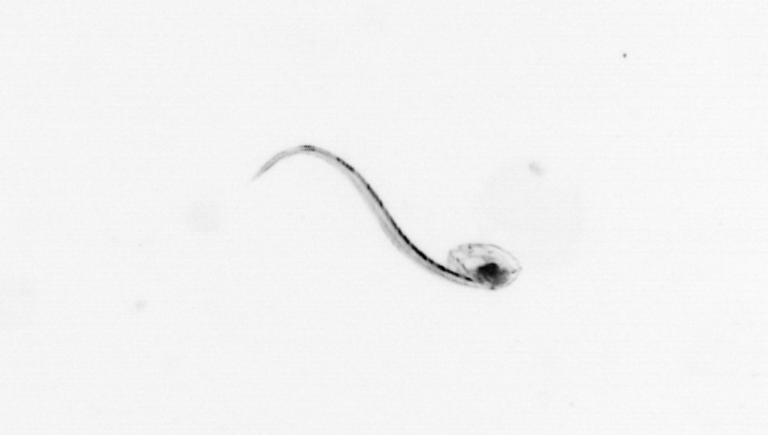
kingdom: Animalia
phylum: Chordata
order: Copelata
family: Fritillariidae
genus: Appendicularia
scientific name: Appendicularia
